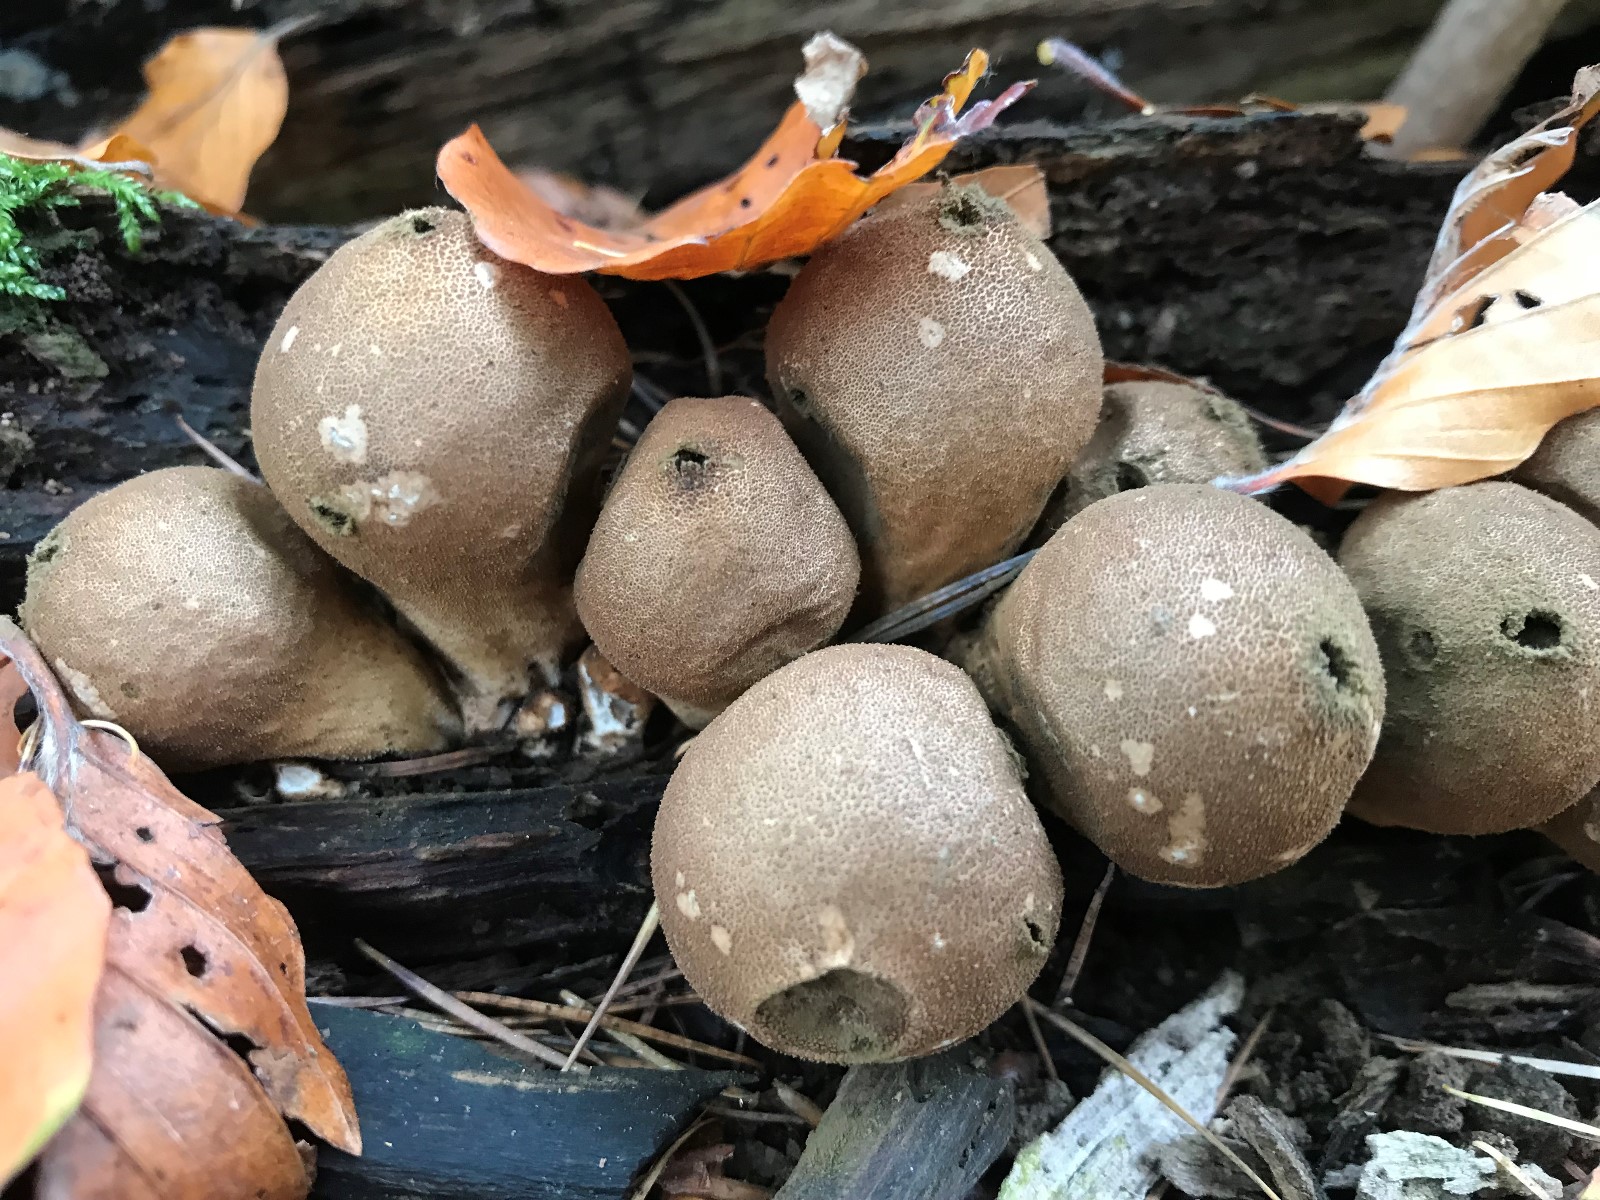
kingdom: Fungi
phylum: Basidiomycota
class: Agaricomycetes
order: Agaricales
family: Lycoperdaceae
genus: Apioperdon
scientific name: Apioperdon pyriforme
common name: pære-støvbold
